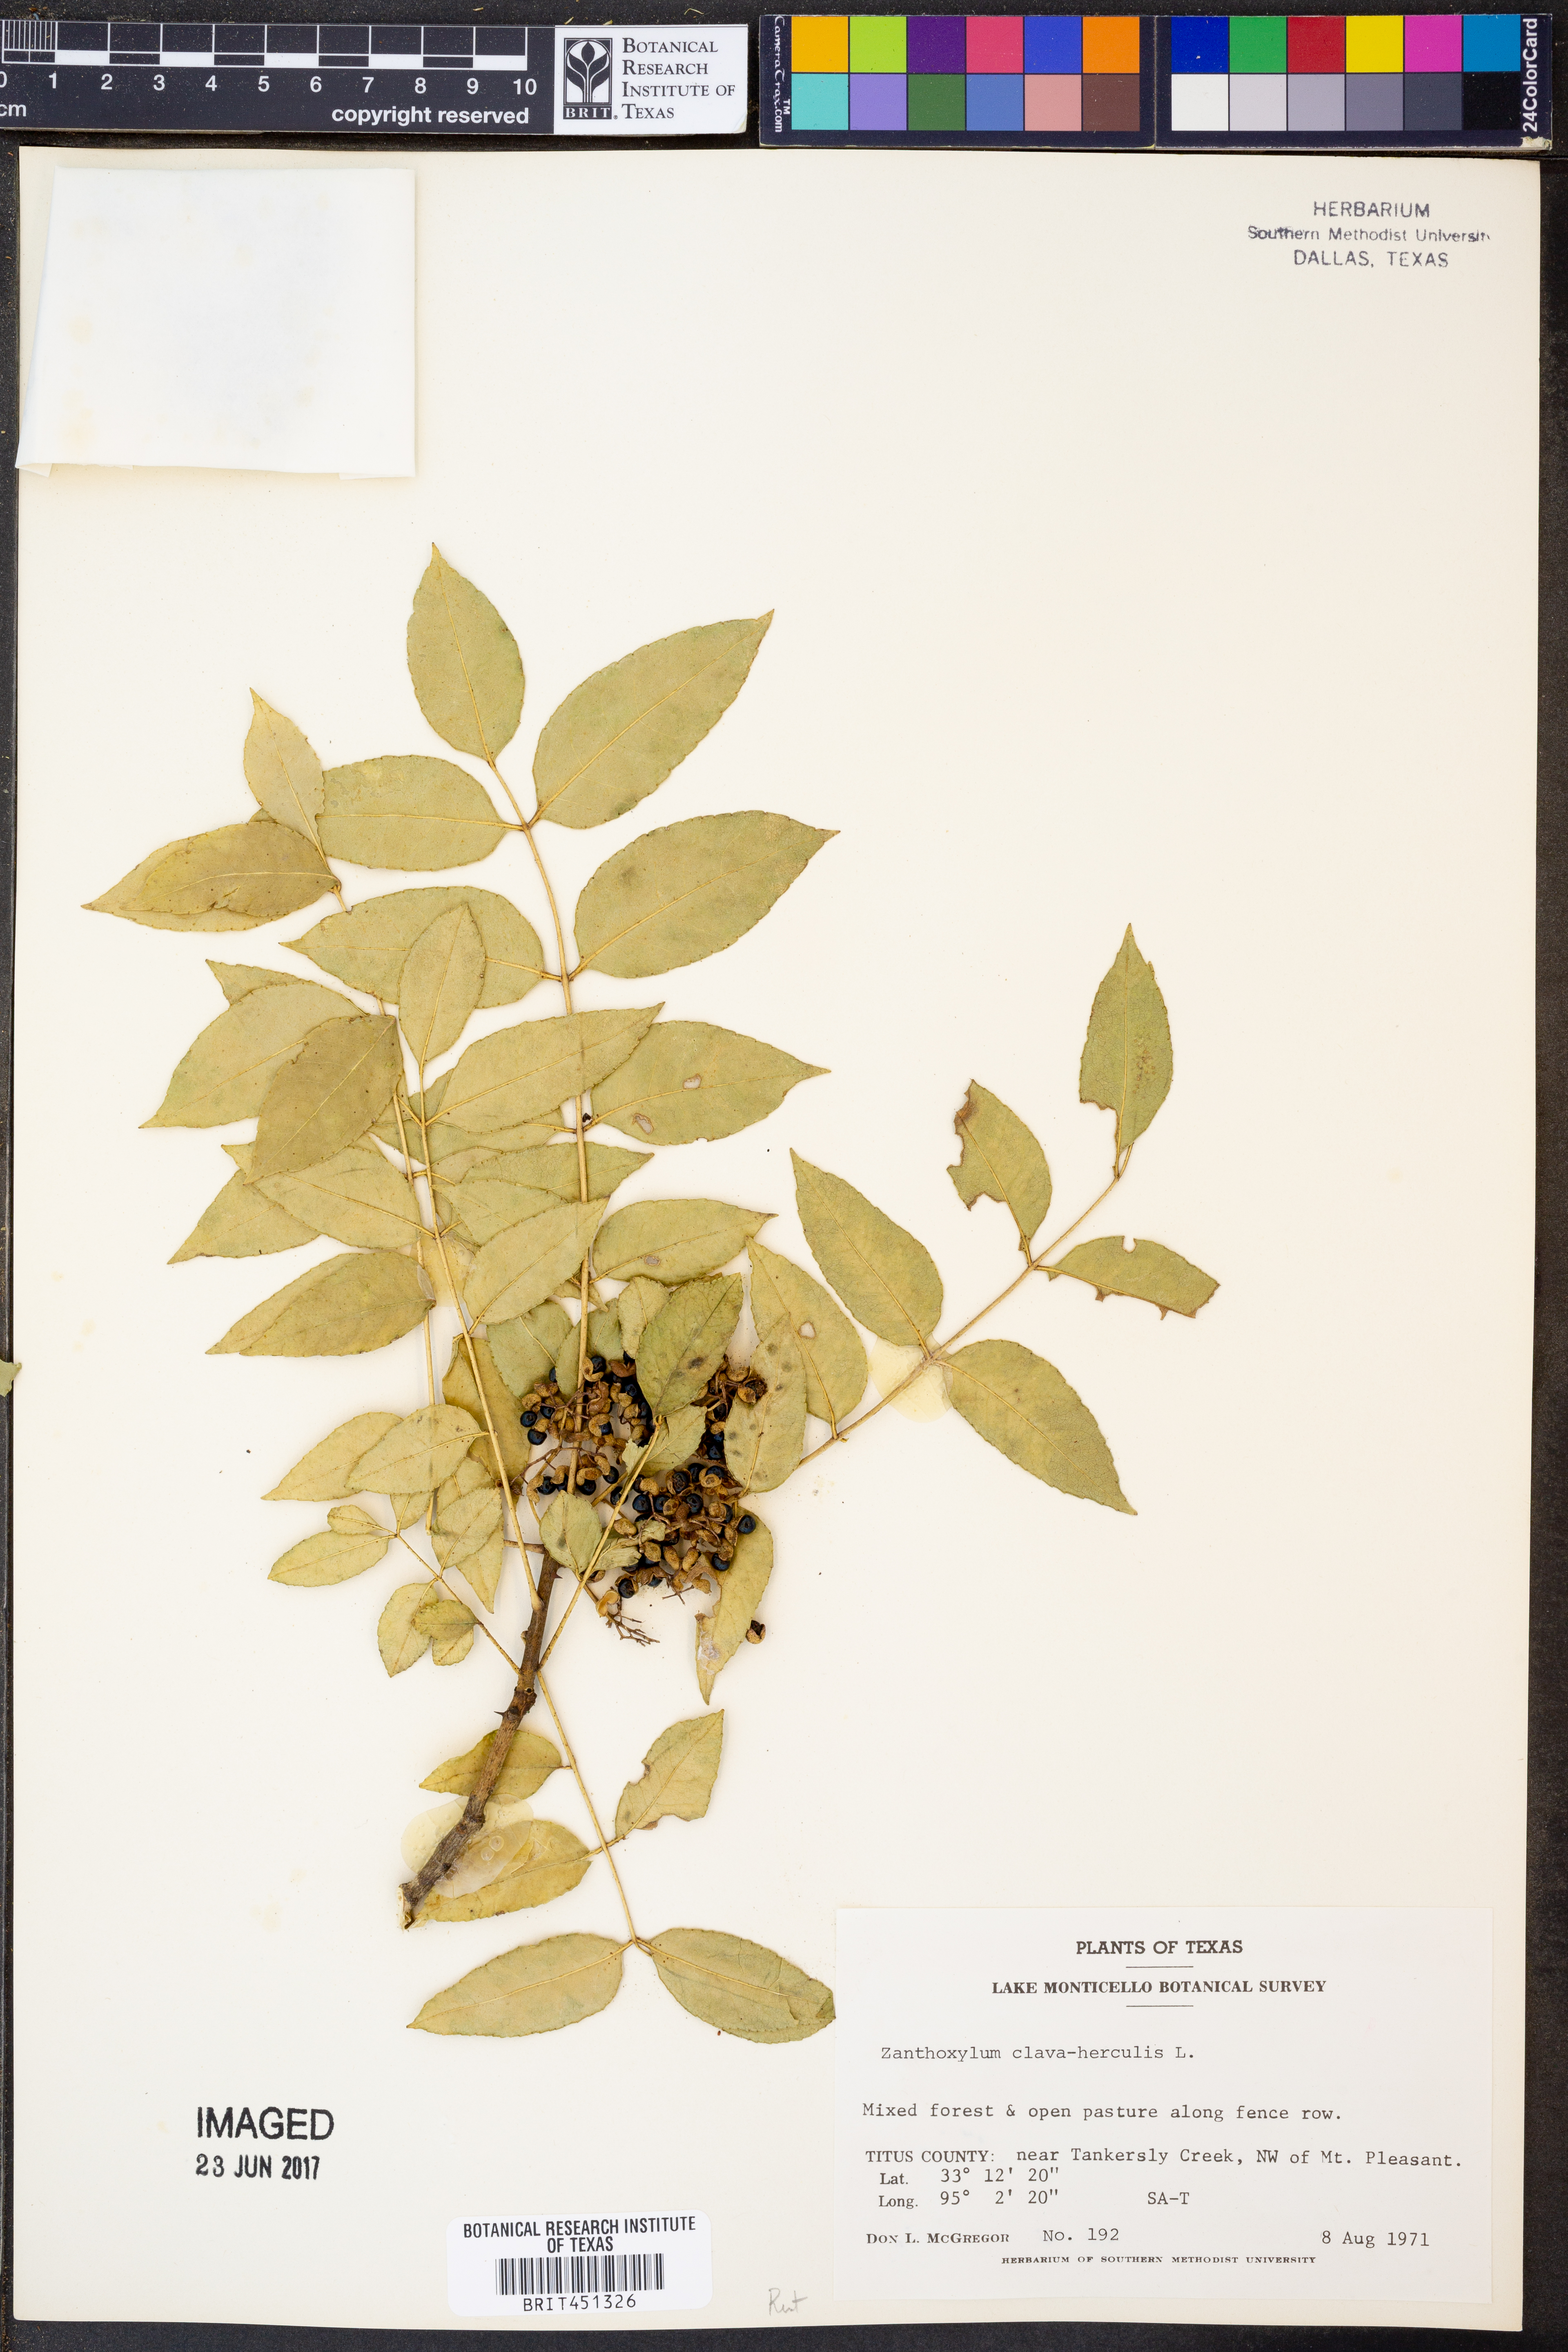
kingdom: Plantae
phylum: Tracheophyta
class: Magnoliopsida
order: Sapindales
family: Rutaceae
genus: Zanthoxylum
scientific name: Zanthoxylum avicennae
